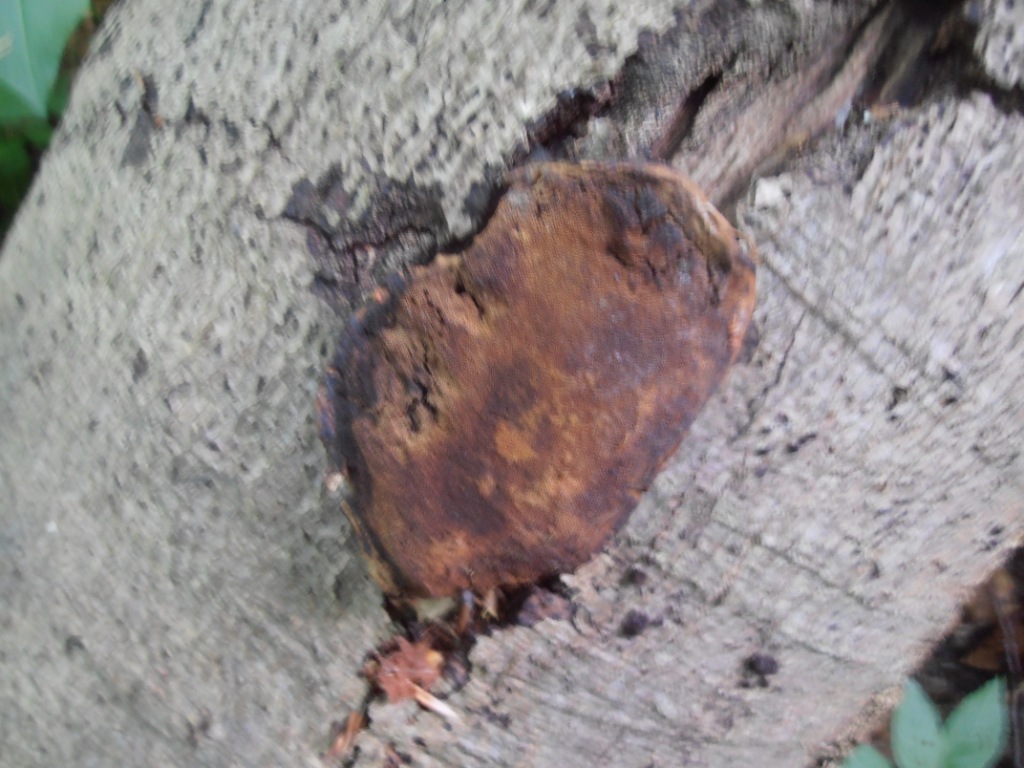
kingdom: Fungi
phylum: Basidiomycota
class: Agaricomycetes
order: Polyporales
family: Polyporaceae
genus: Fomes
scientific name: Fomes fomentarius
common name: tøndersvamp
